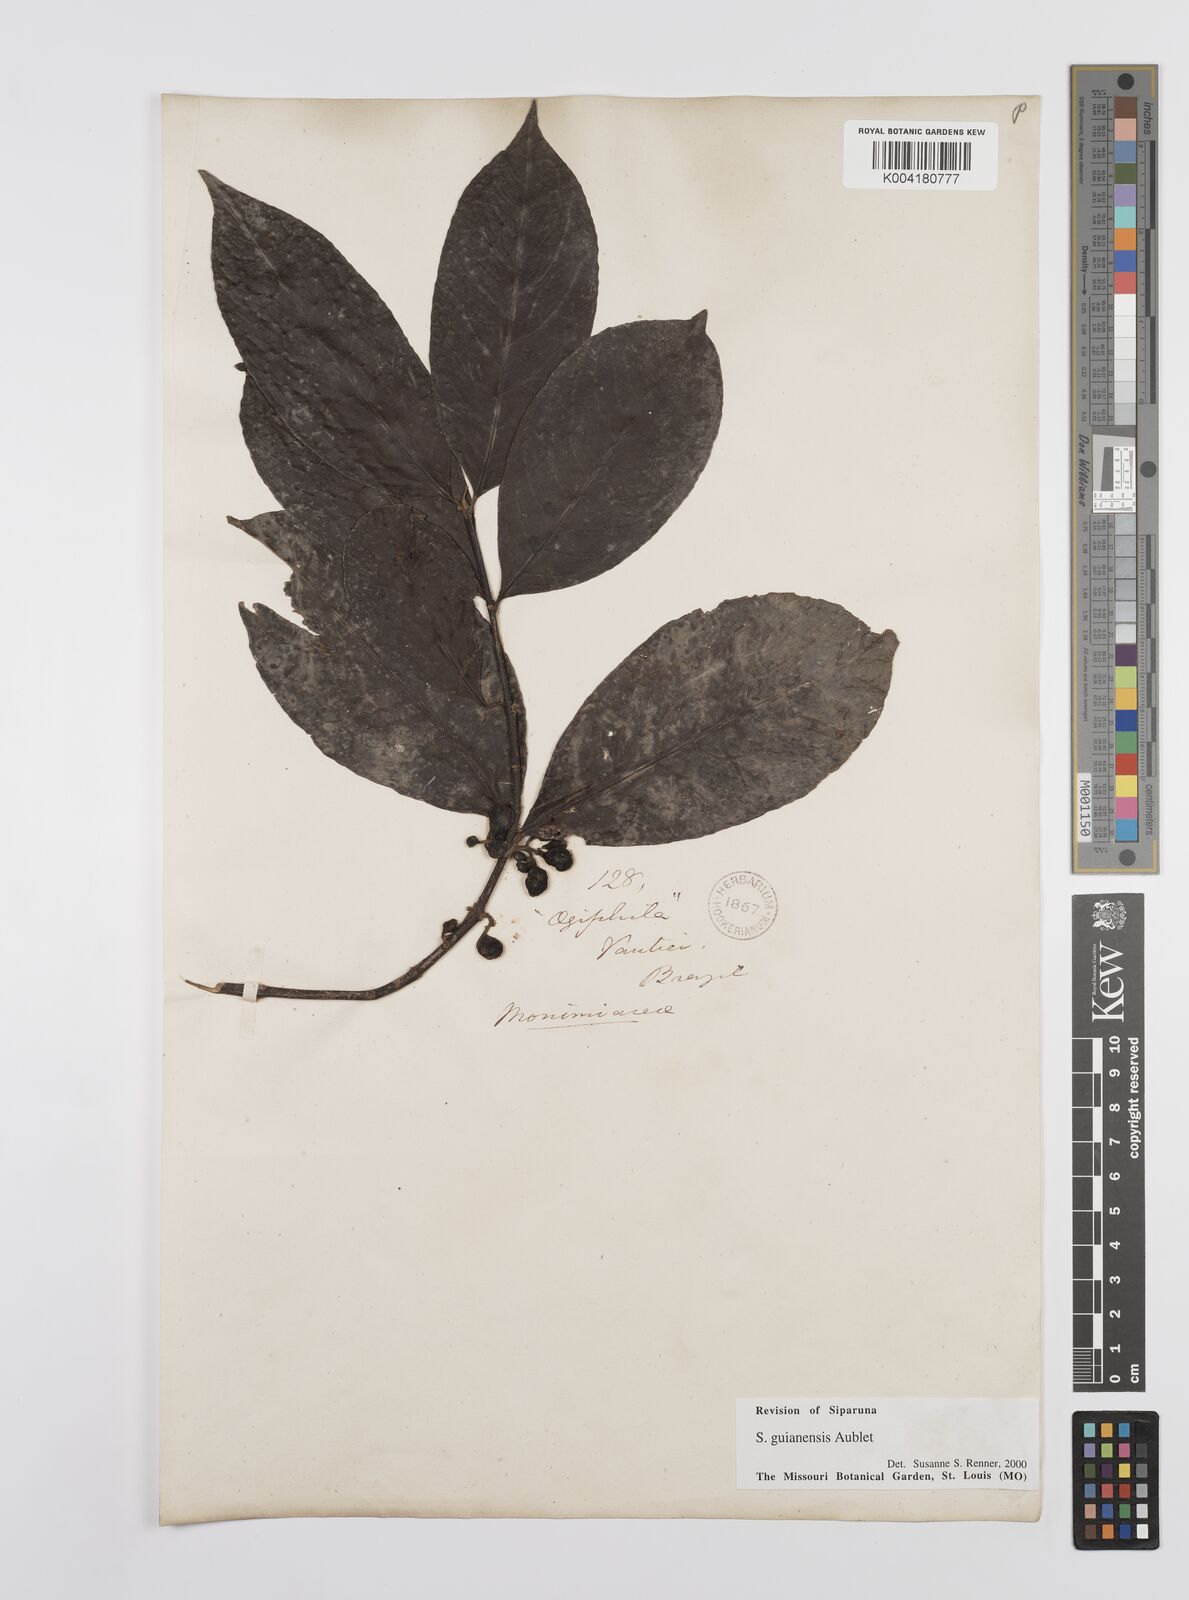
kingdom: Plantae
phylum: Tracheophyta
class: Magnoliopsida
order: Laurales
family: Siparunaceae
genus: Siparuna
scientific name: Siparuna guianensis
